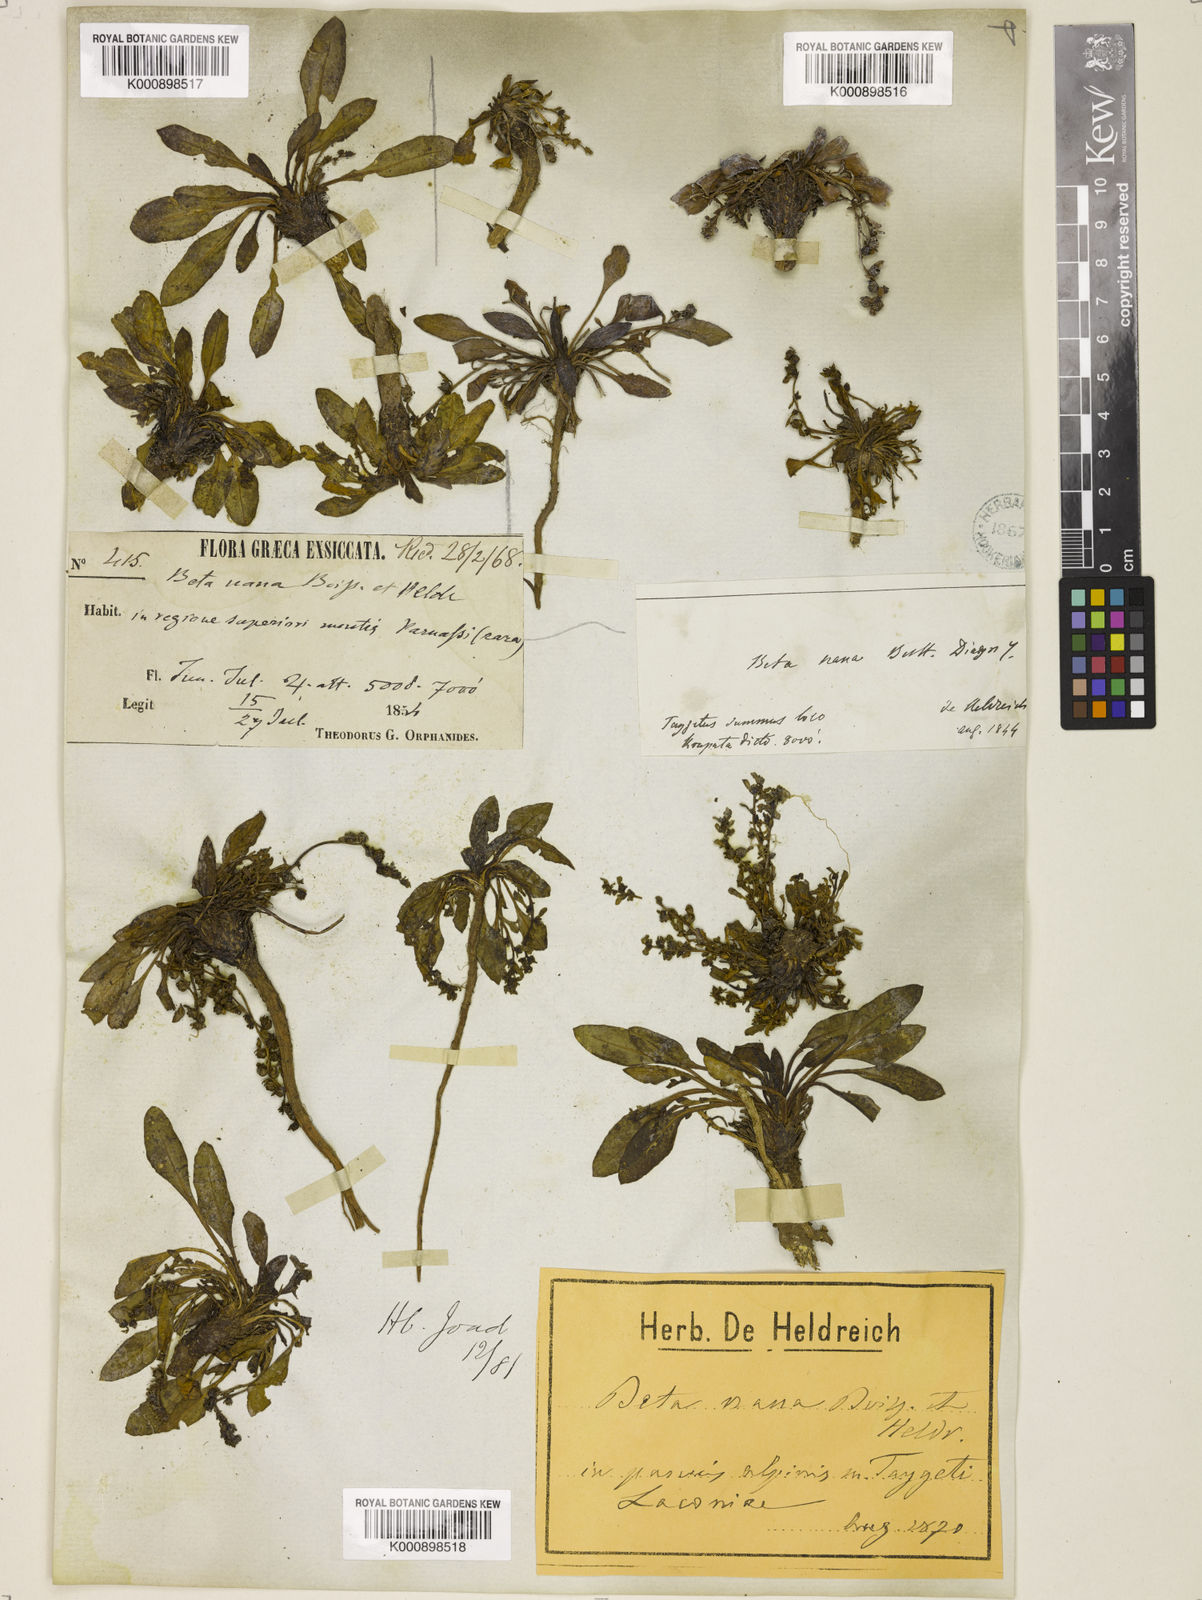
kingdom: Plantae
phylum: Tracheophyta
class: Magnoliopsida
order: Caryophyllales
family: Amaranthaceae
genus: Beta
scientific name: Beta nana
